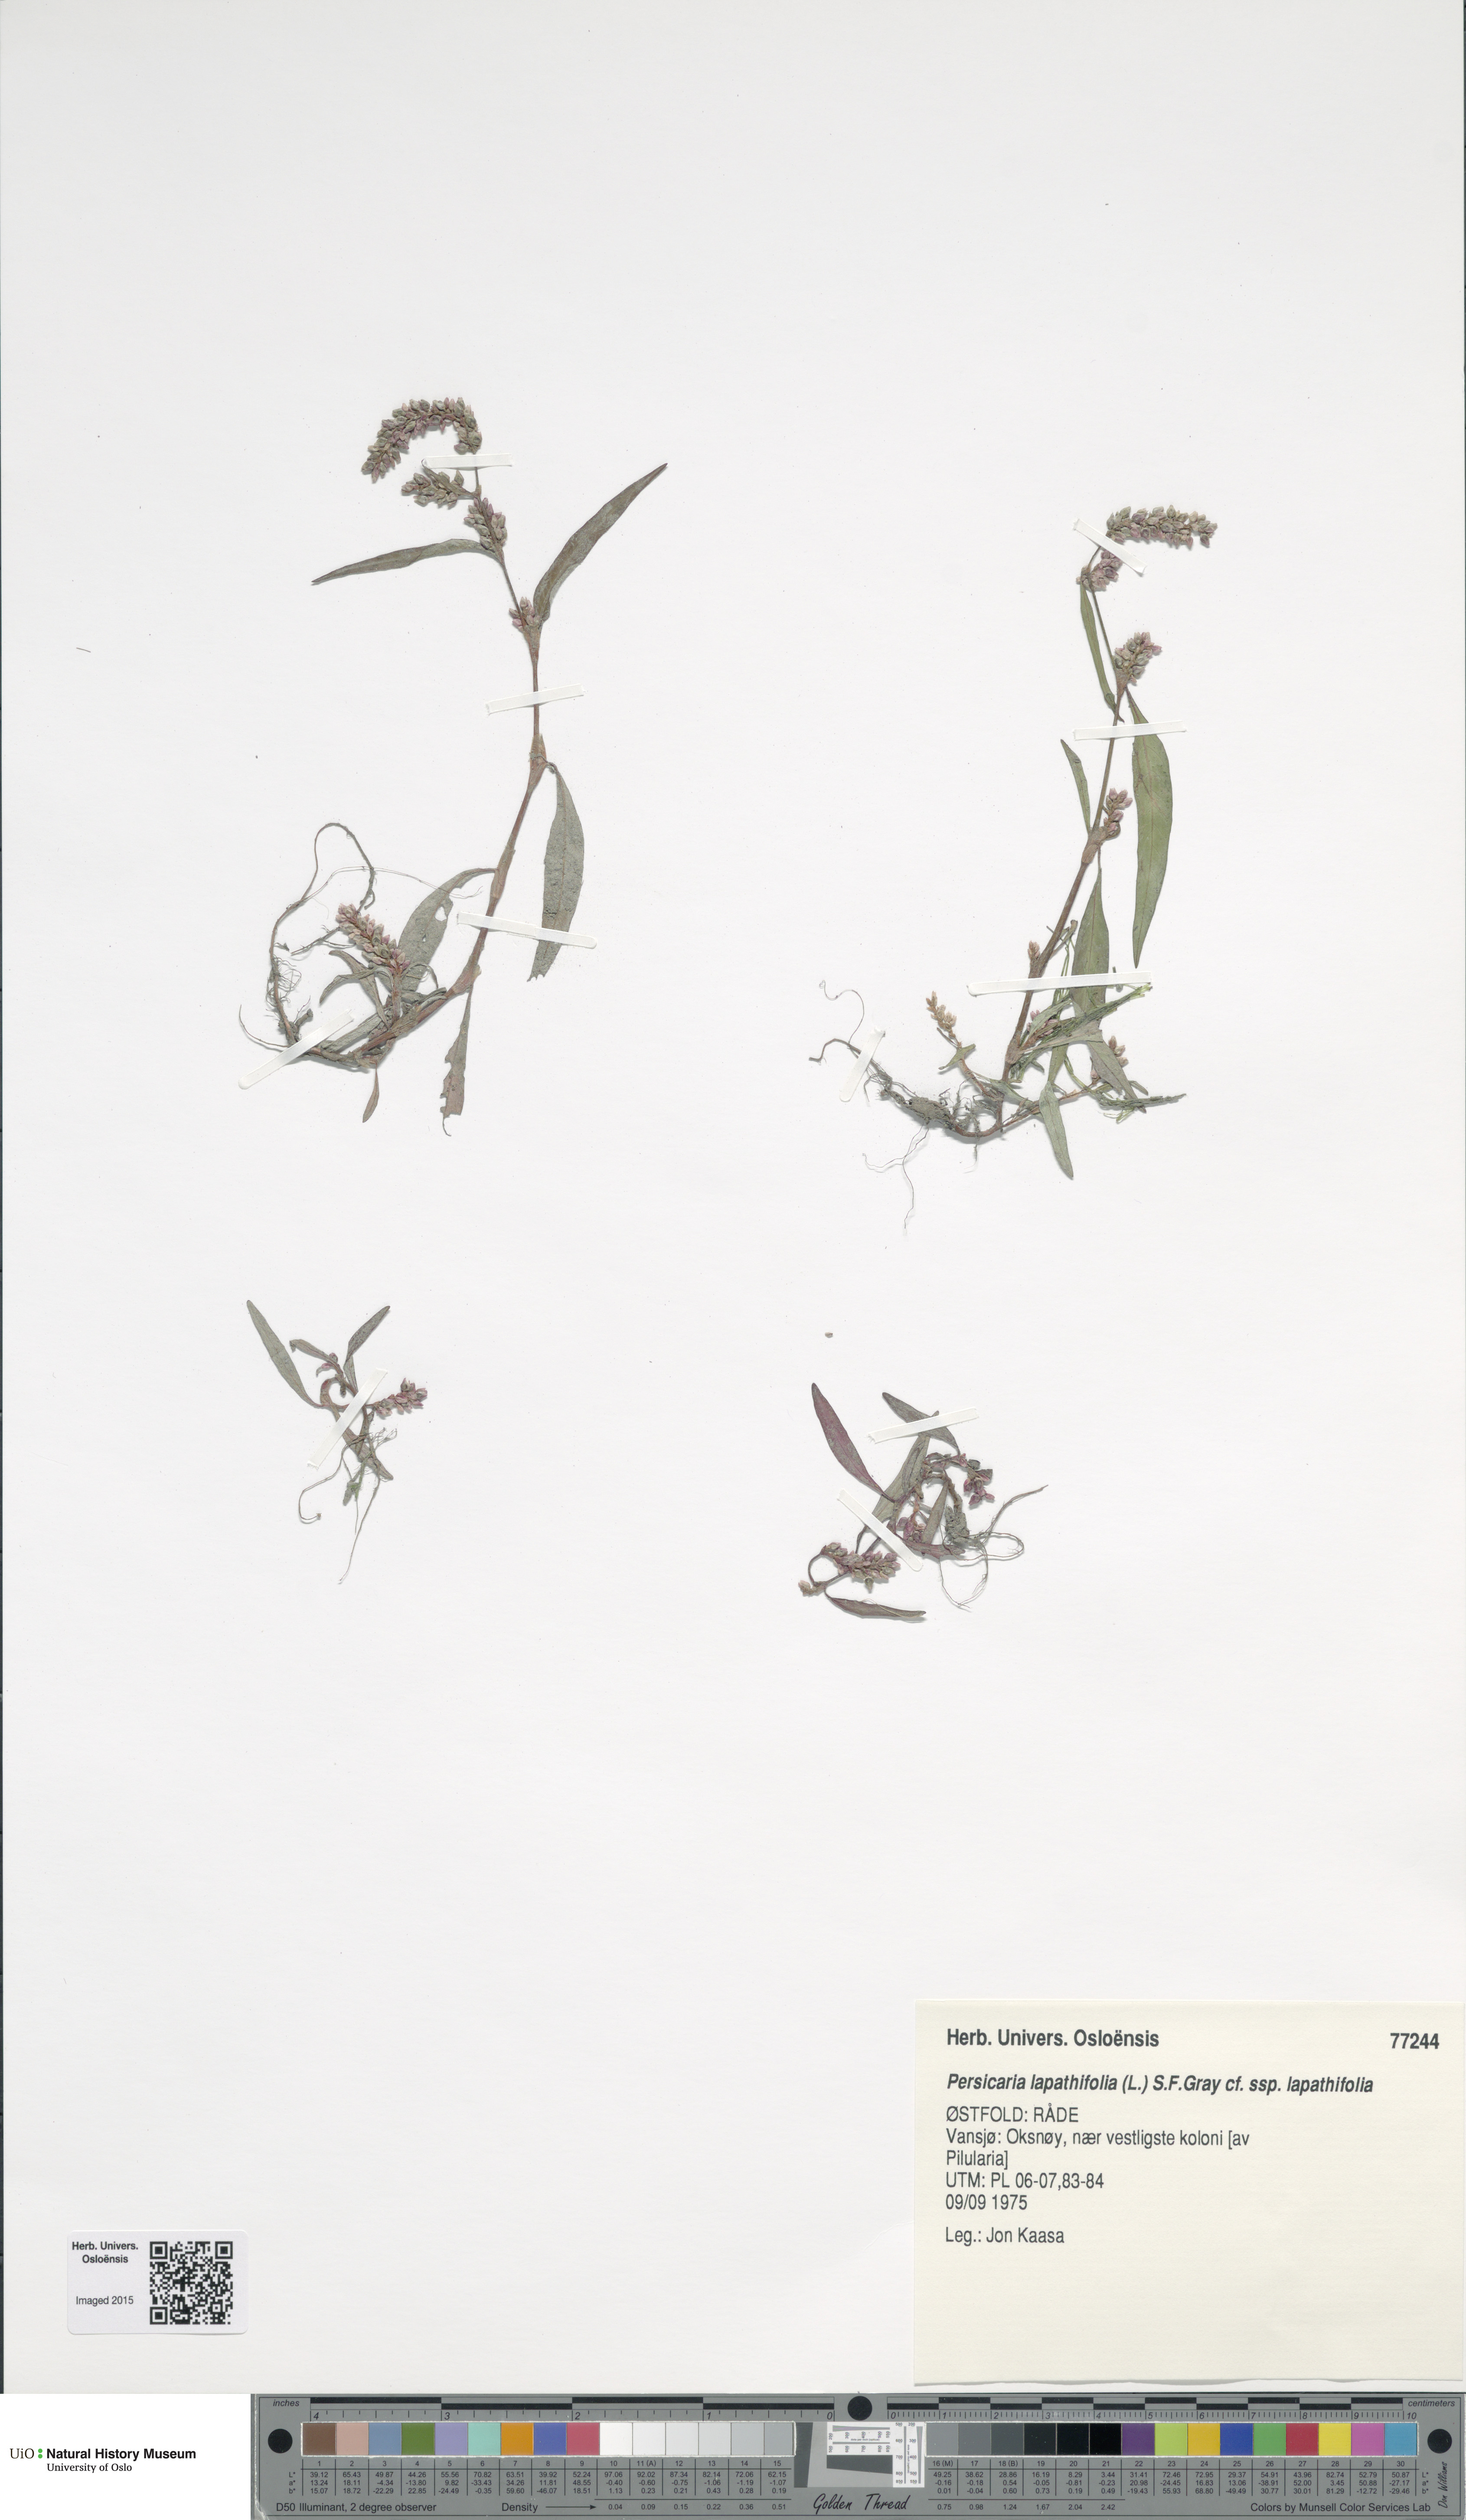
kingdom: Plantae
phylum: Tracheophyta
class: Magnoliopsida
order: Caryophyllales
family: Polygonaceae
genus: Persicaria
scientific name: Persicaria lapathifolia
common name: Curlytop knotweed
